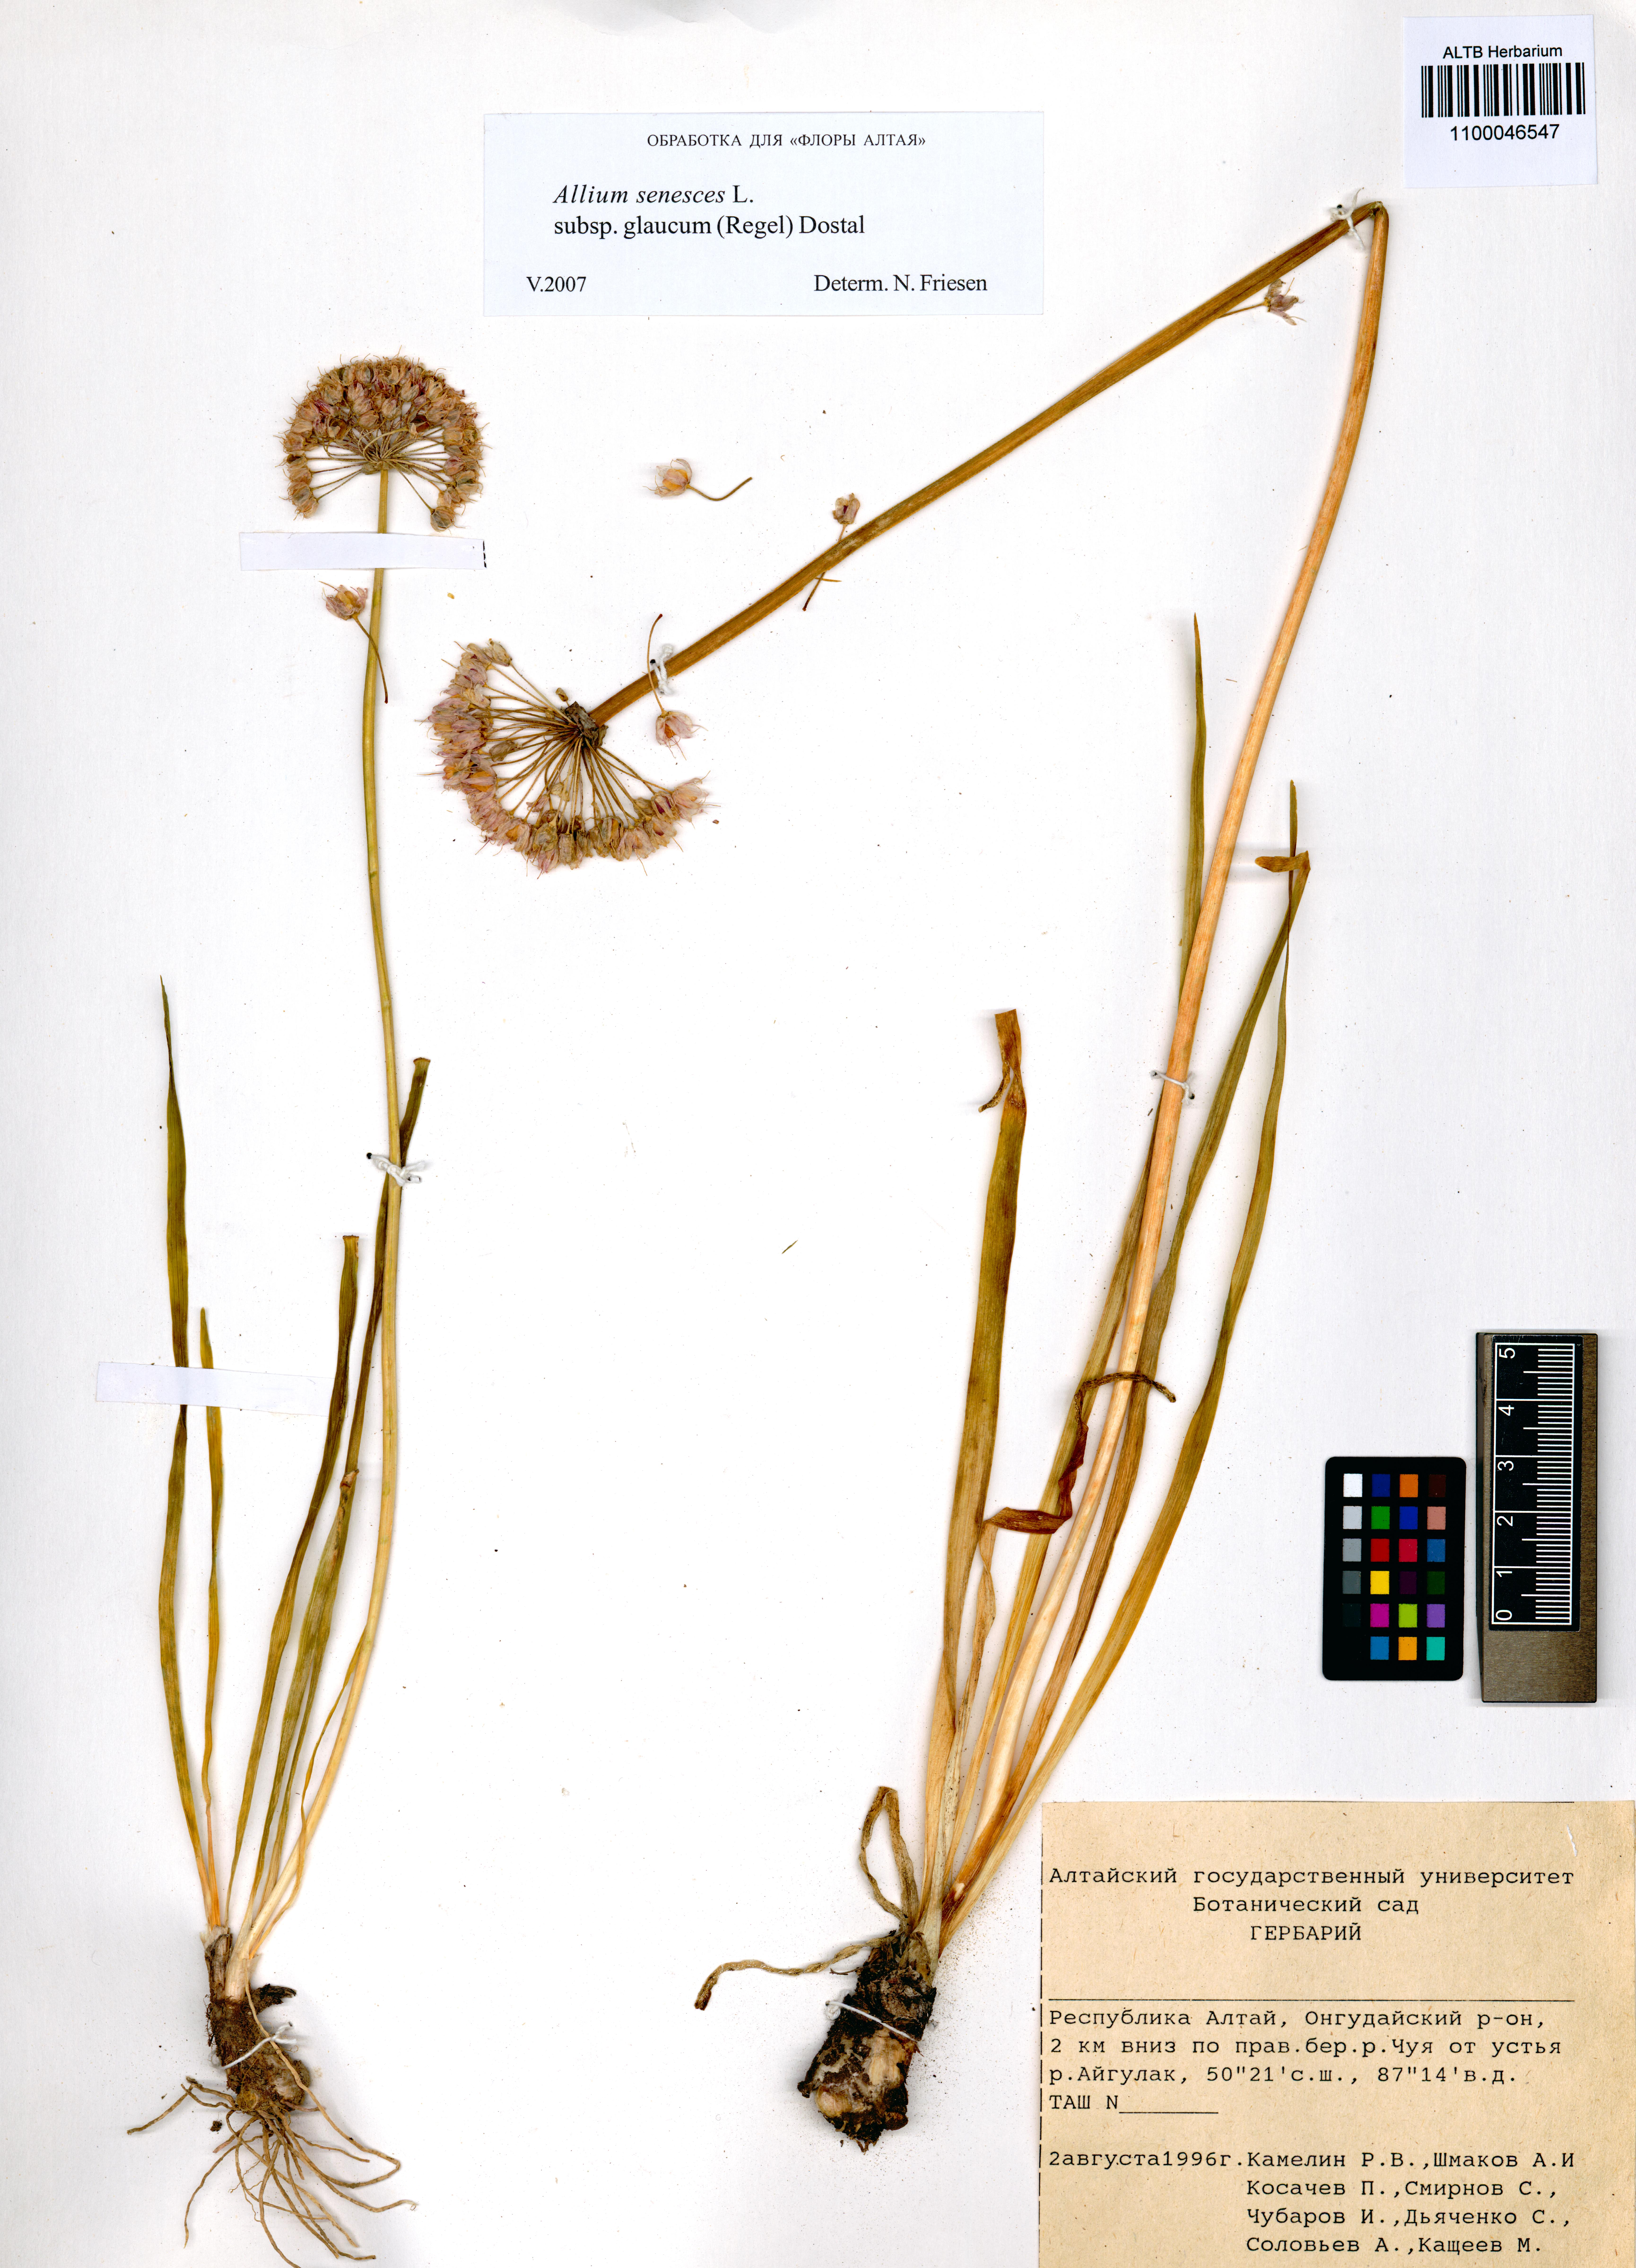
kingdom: Plantae
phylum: Tracheophyta
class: Liliopsida
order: Asparagales
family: Amaryllidaceae
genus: Allium
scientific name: Allium senescens
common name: German garlic
